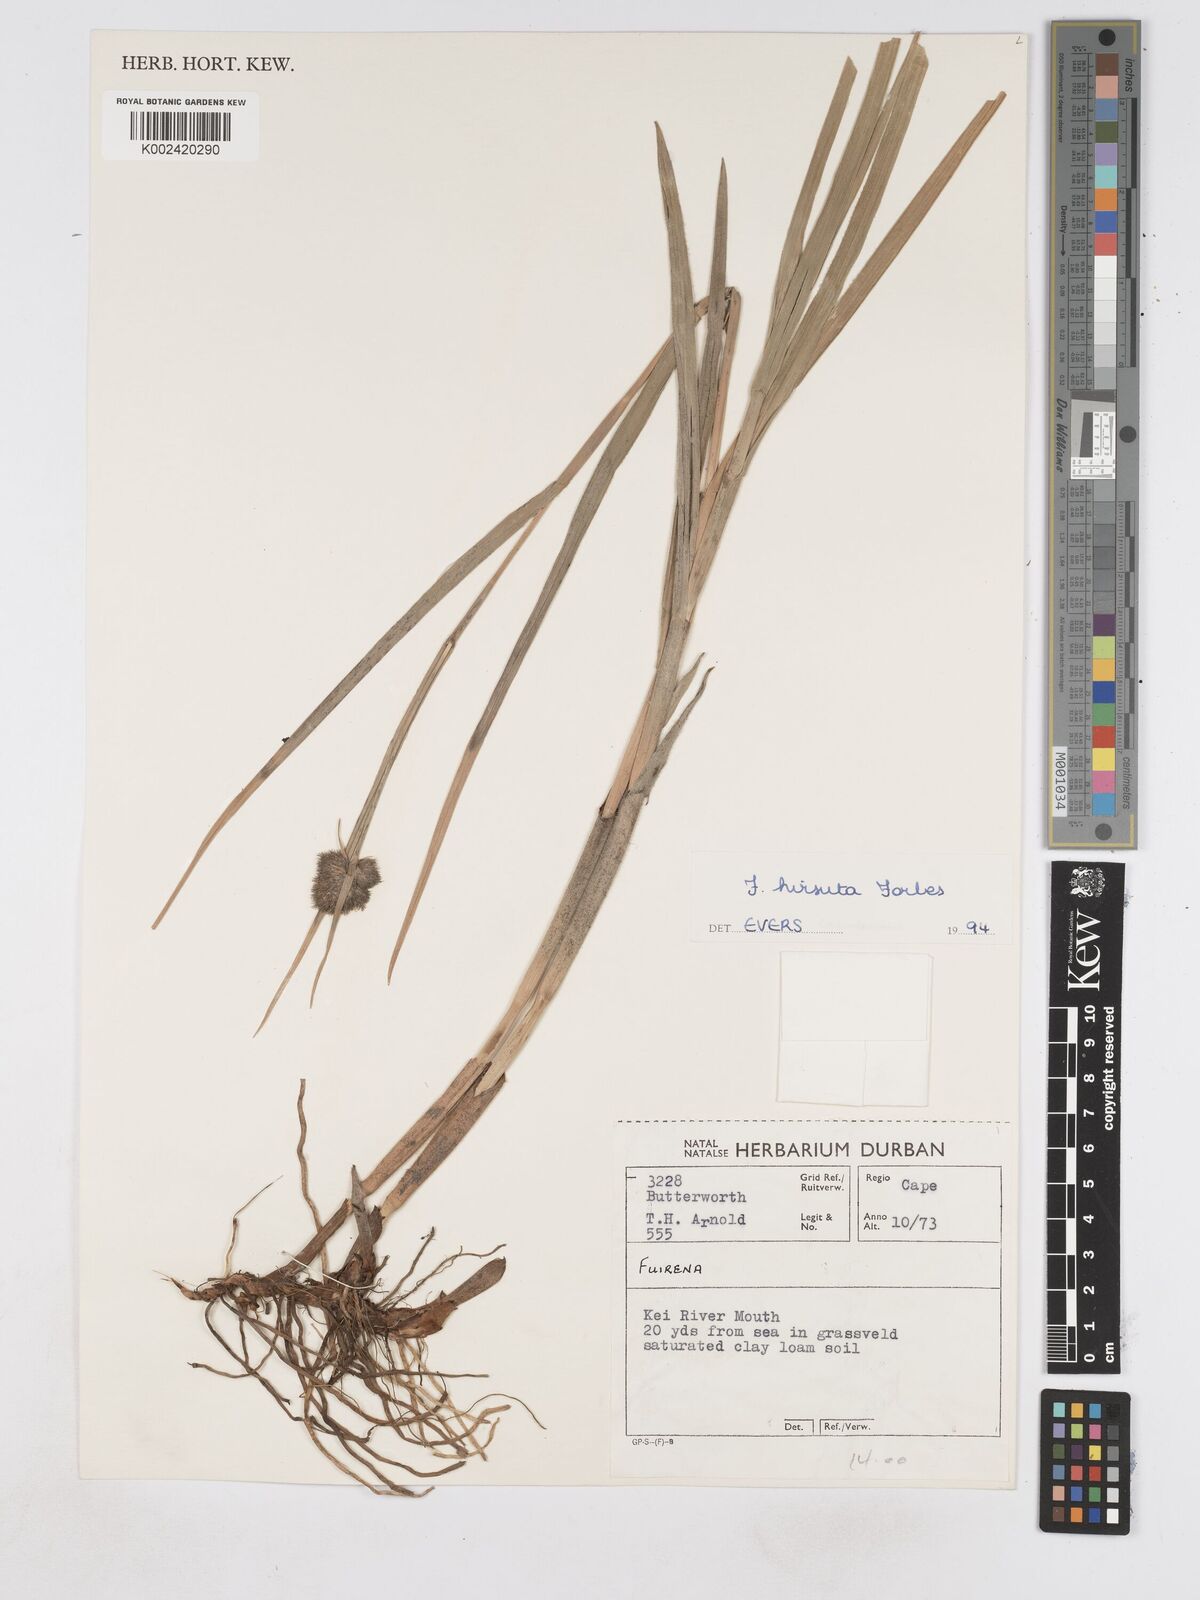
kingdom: Plantae
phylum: Tracheophyta
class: Liliopsida
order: Poales
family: Cyperaceae
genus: Fuirena
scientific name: Fuirena hirsuta
